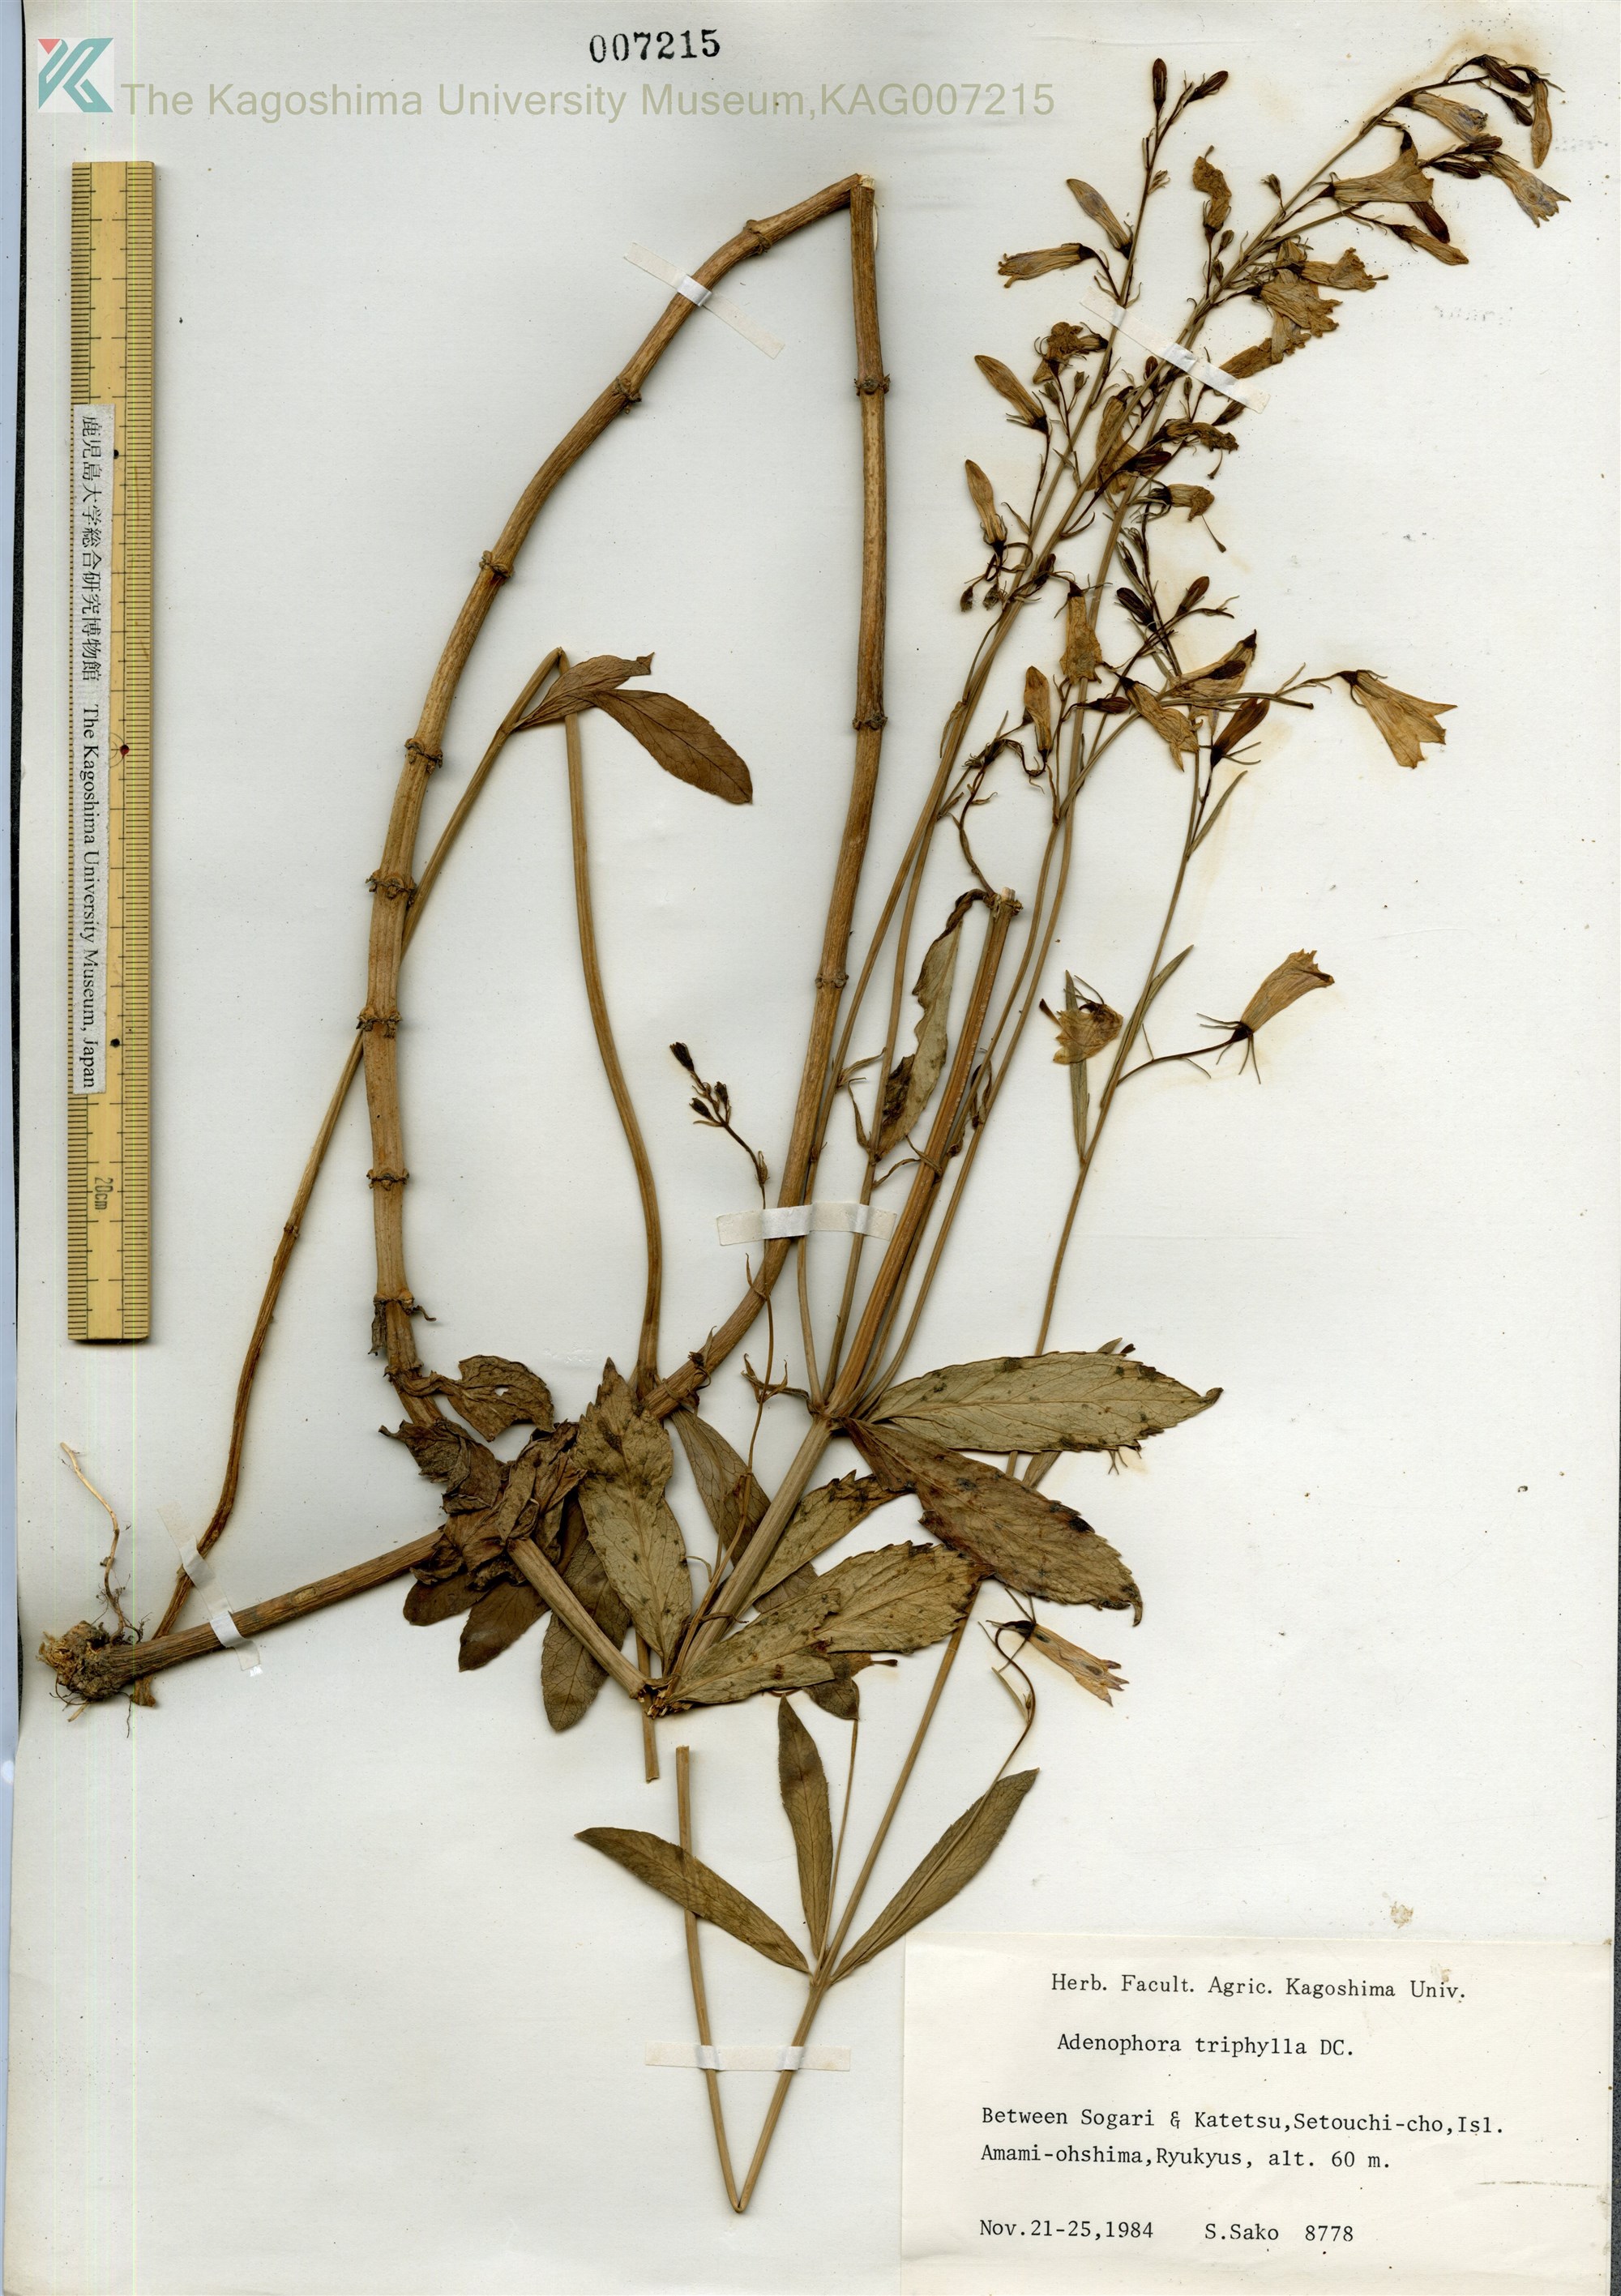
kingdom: Plantae
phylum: Tracheophyta
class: Magnoliopsida
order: Asterales
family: Campanulaceae
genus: Adenophora
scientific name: Adenophora tashiroi
